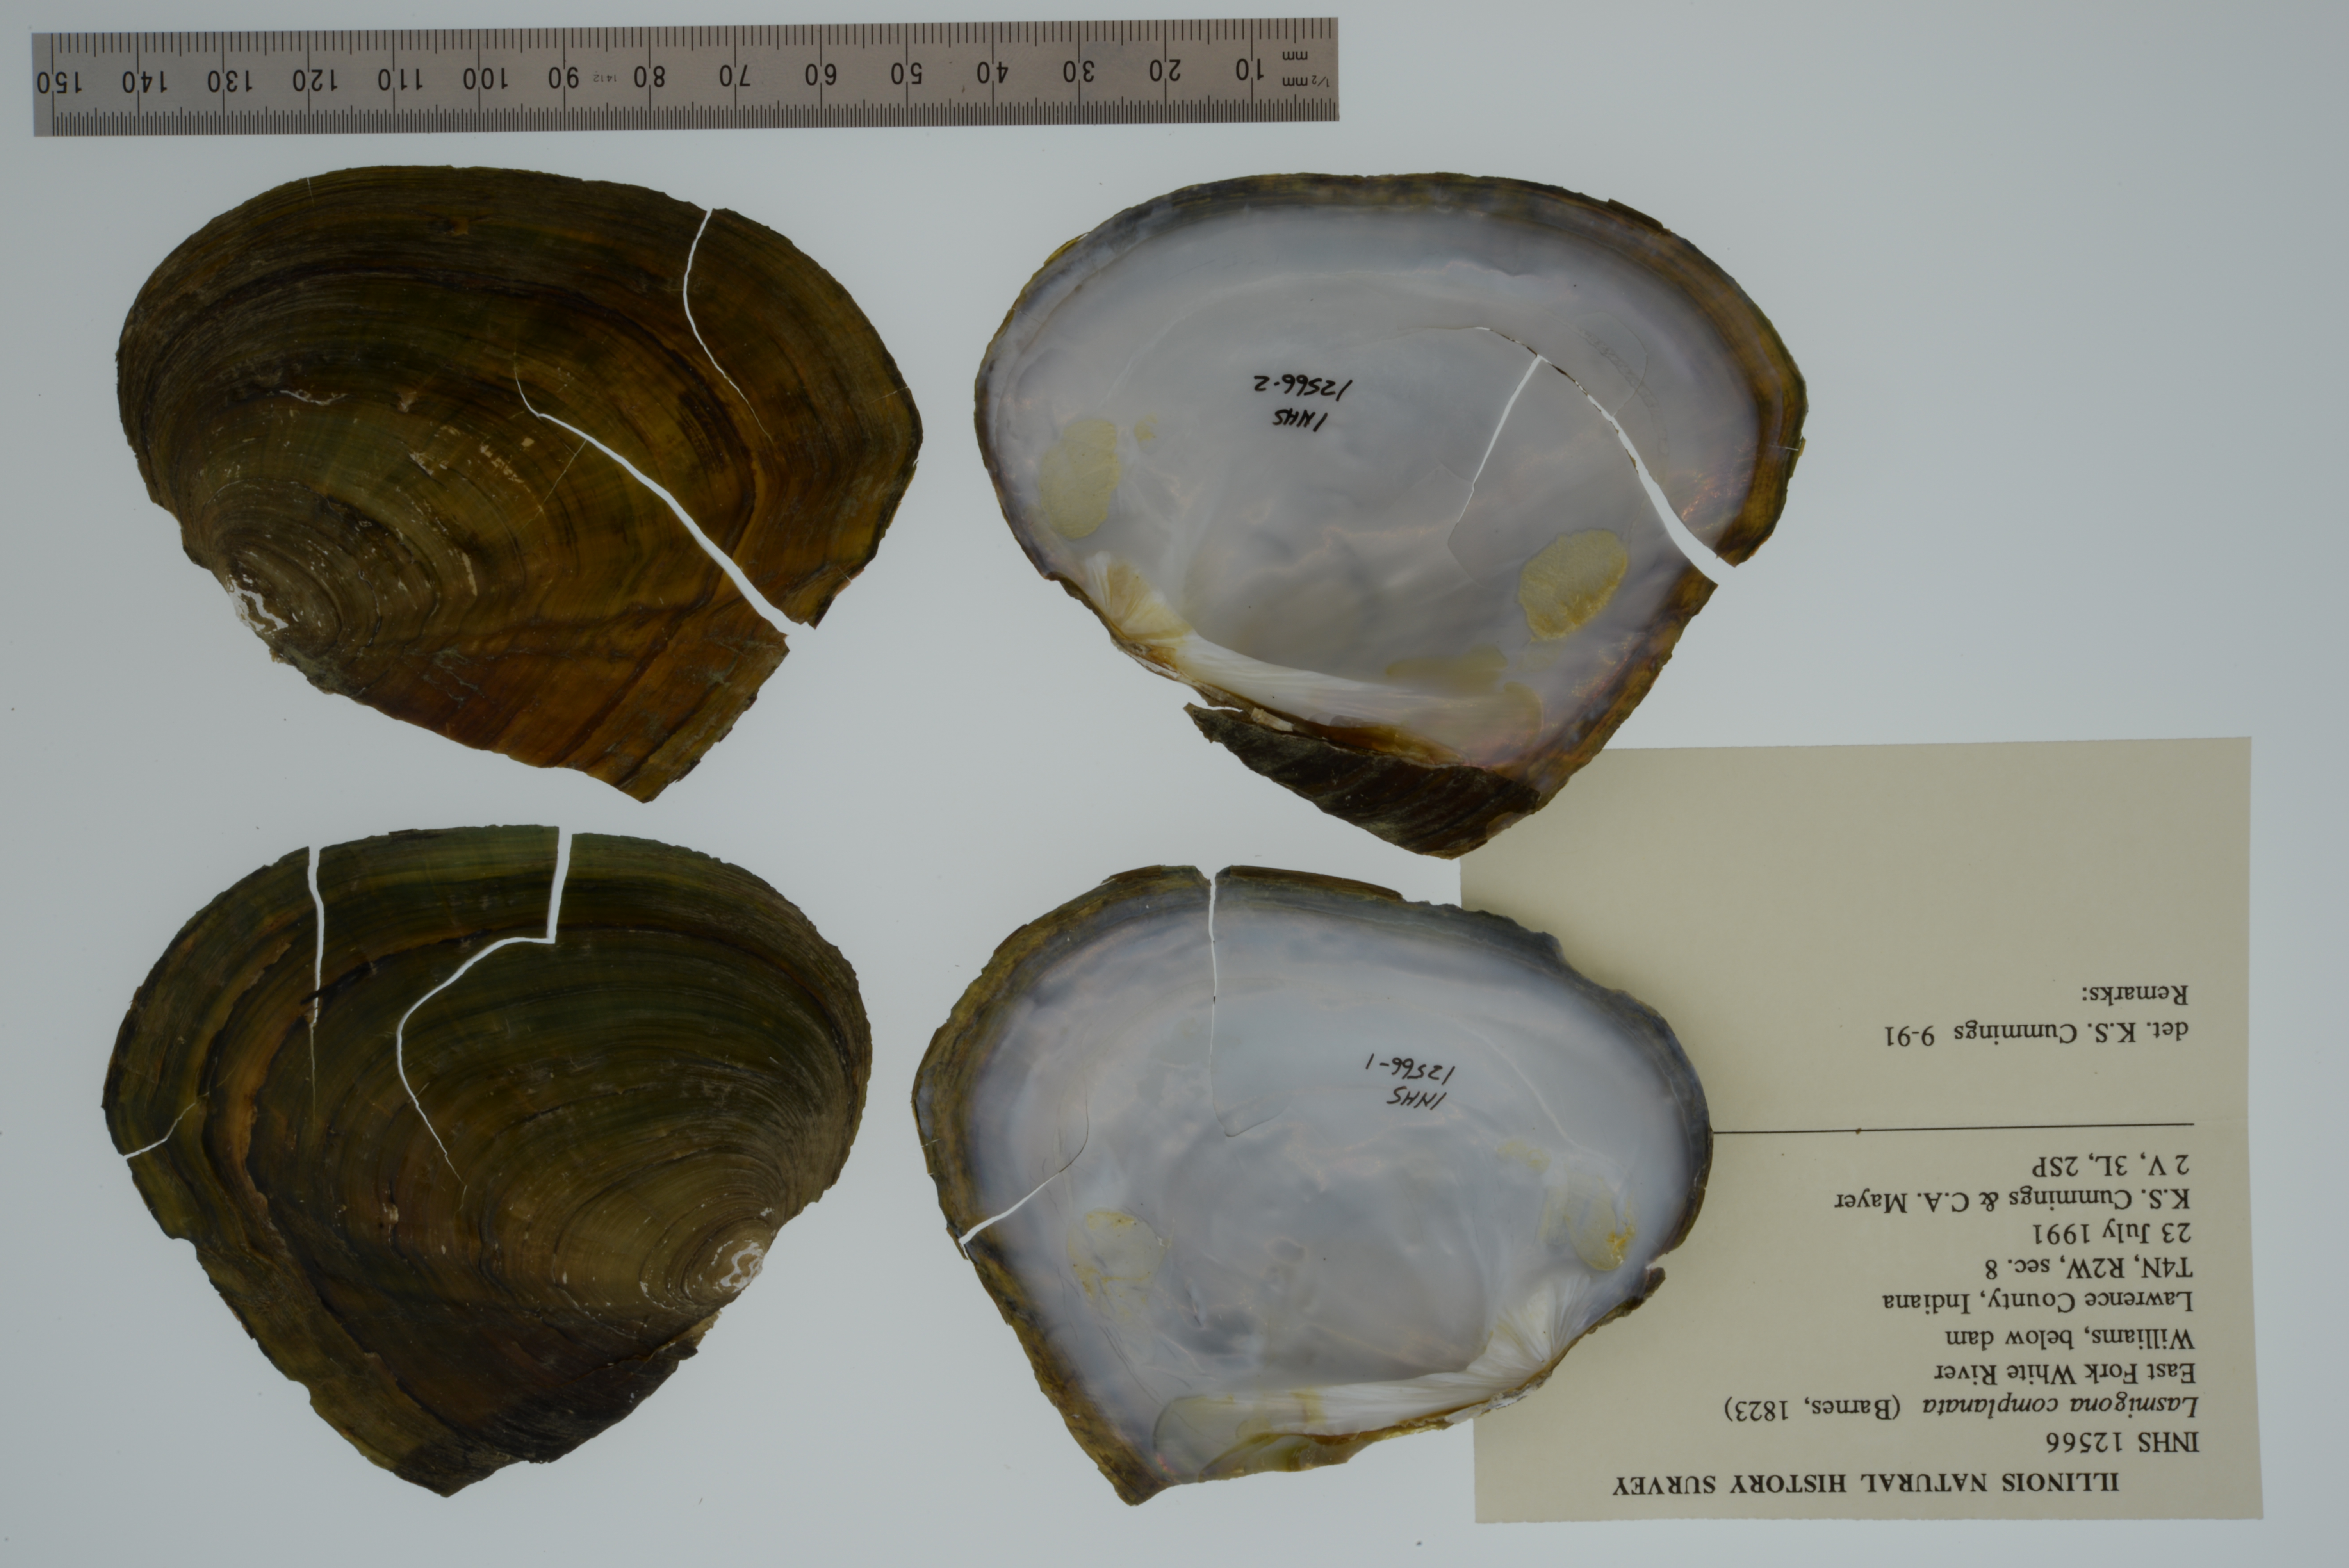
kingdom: Animalia
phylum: Mollusca
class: Bivalvia
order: Unionida
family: Unionidae
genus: Lasmigona
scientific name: Lasmigona complanata
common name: White heelsplitter
